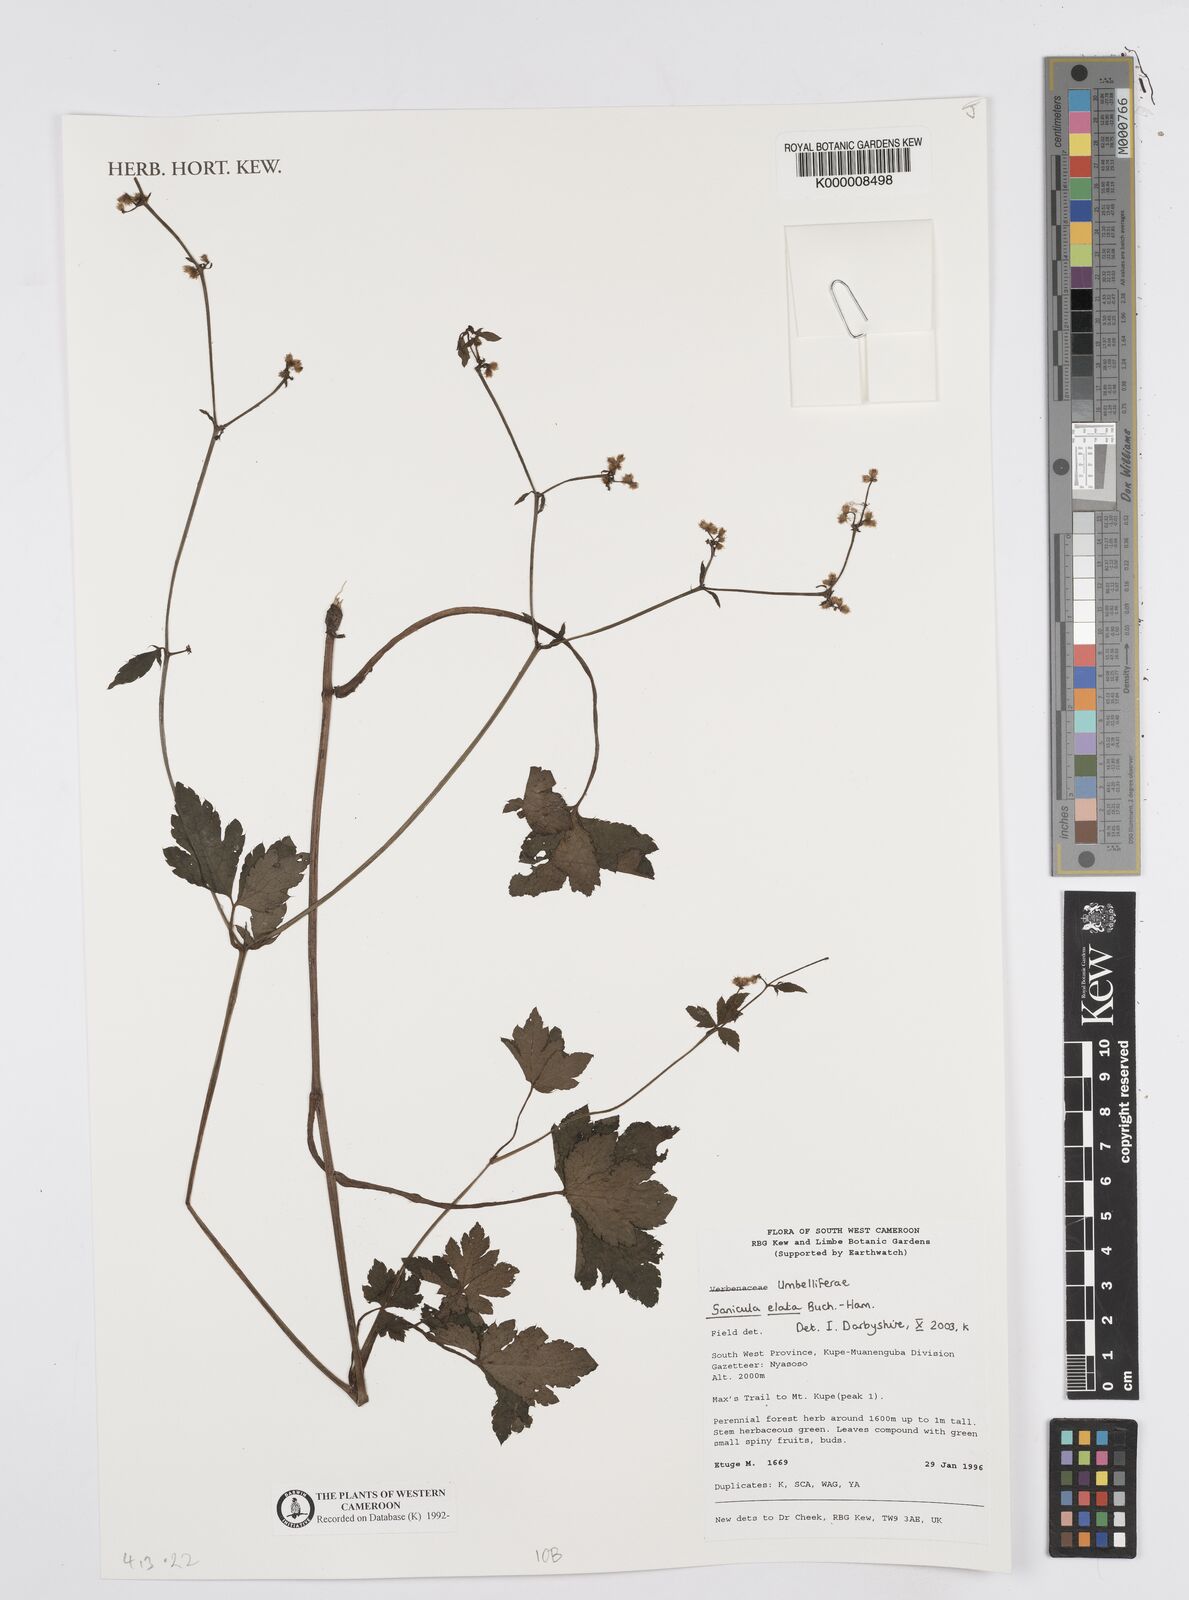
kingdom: Plantae
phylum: Tracheophyta
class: Magnoliopsida
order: Apiales
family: Apiaceae
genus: Sanicula
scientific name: Sanicula
